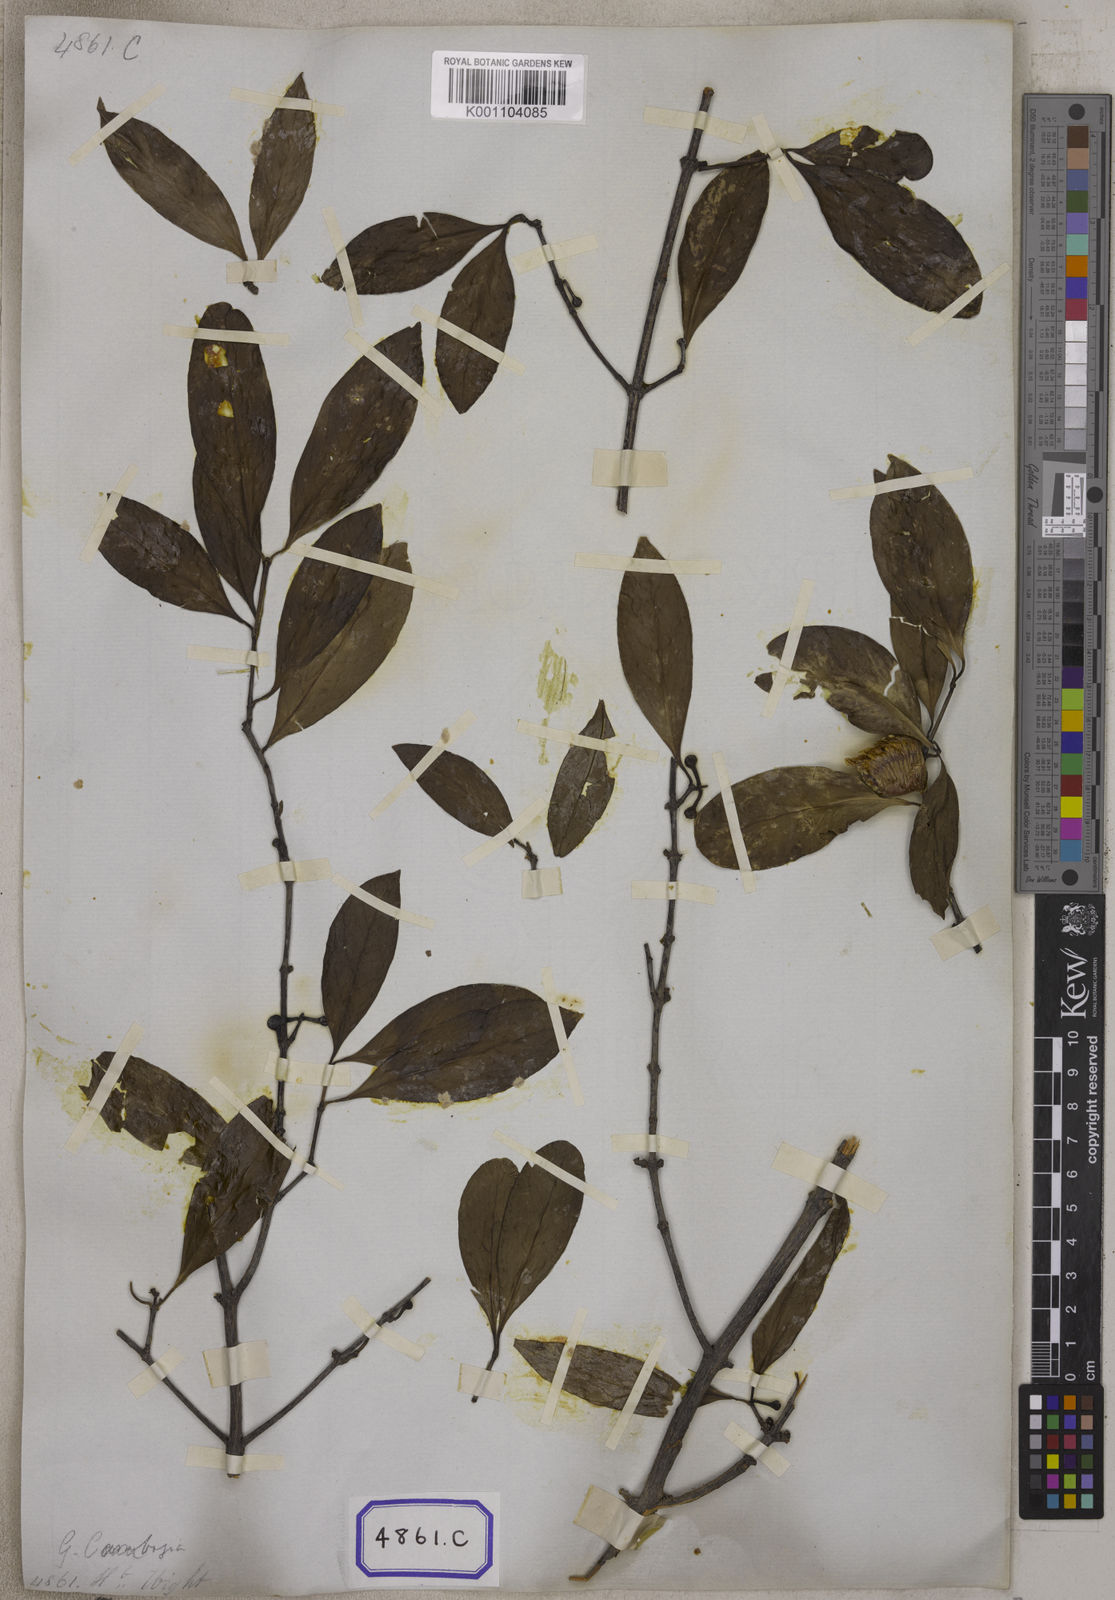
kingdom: Plantae
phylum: Tracheophyta
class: Magnoliopsida
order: Malpighiales
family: Clusiaceae
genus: Garcinia
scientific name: Garcinia lanceifolia
